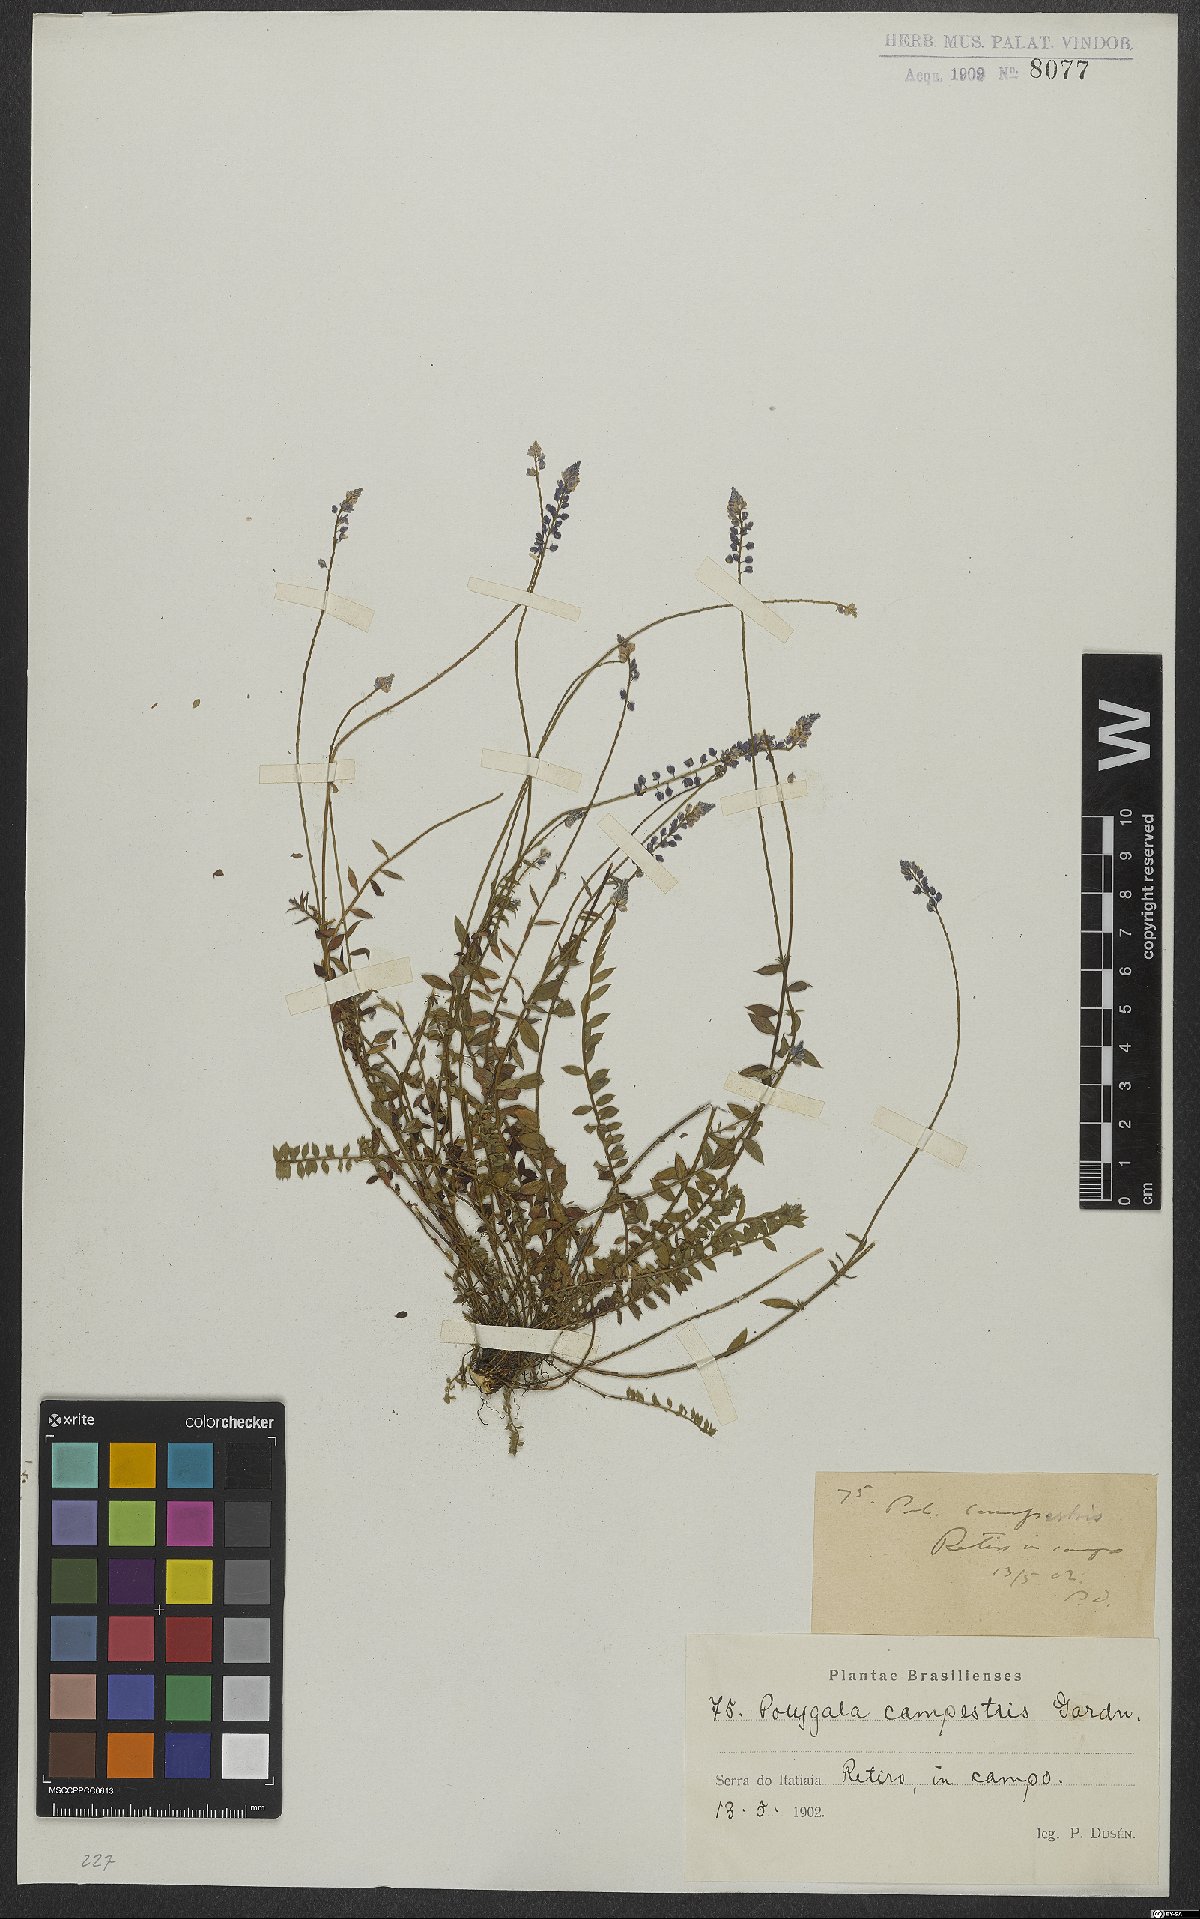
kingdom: Plantae
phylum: Tracheophyta
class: Magnoliopsida
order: Fabales
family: Polygalaceae
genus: Polygala
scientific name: Polygala campestris
